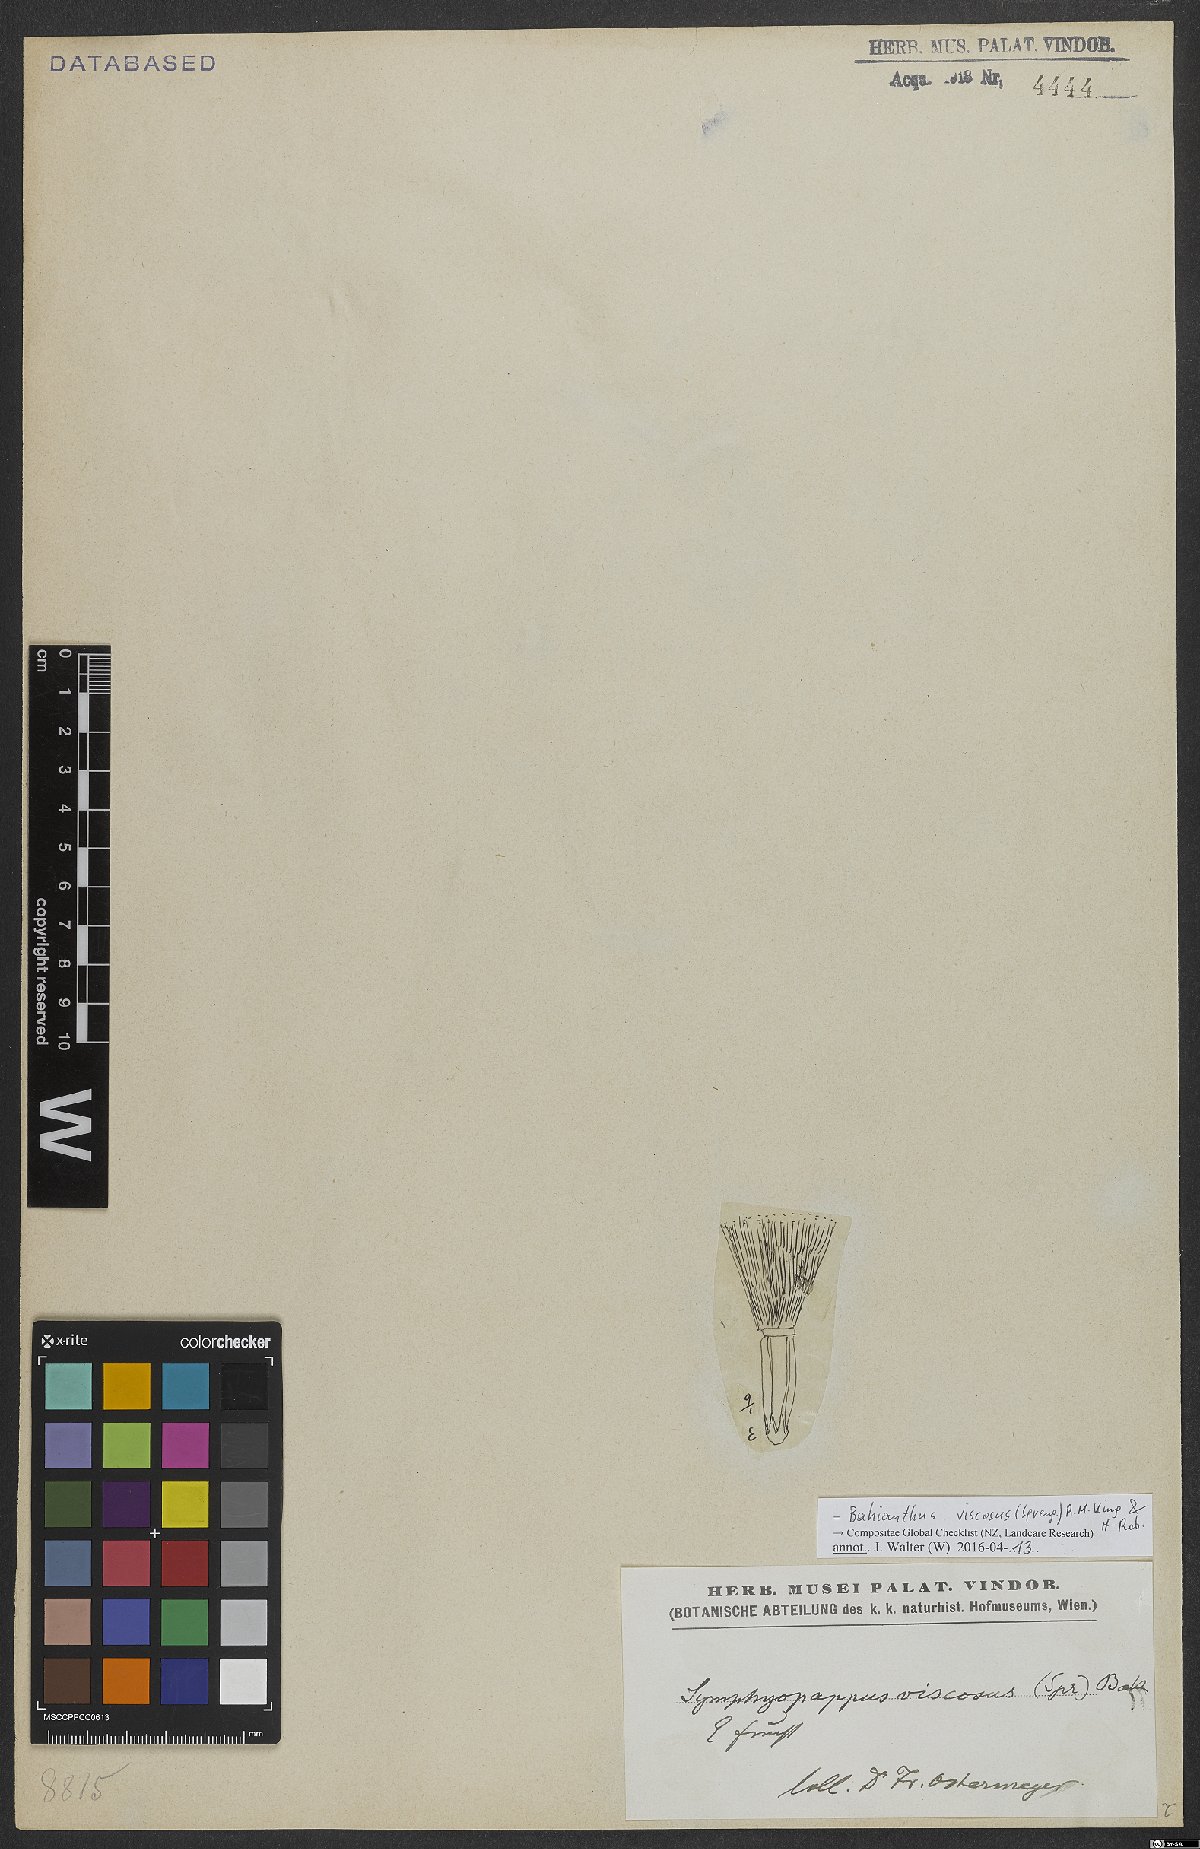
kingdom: Plantae
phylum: Tracheophyta
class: Magnoliopsida
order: Asterales
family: Asteraceae
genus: Bahianthus
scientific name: Bahianthus viscosus
